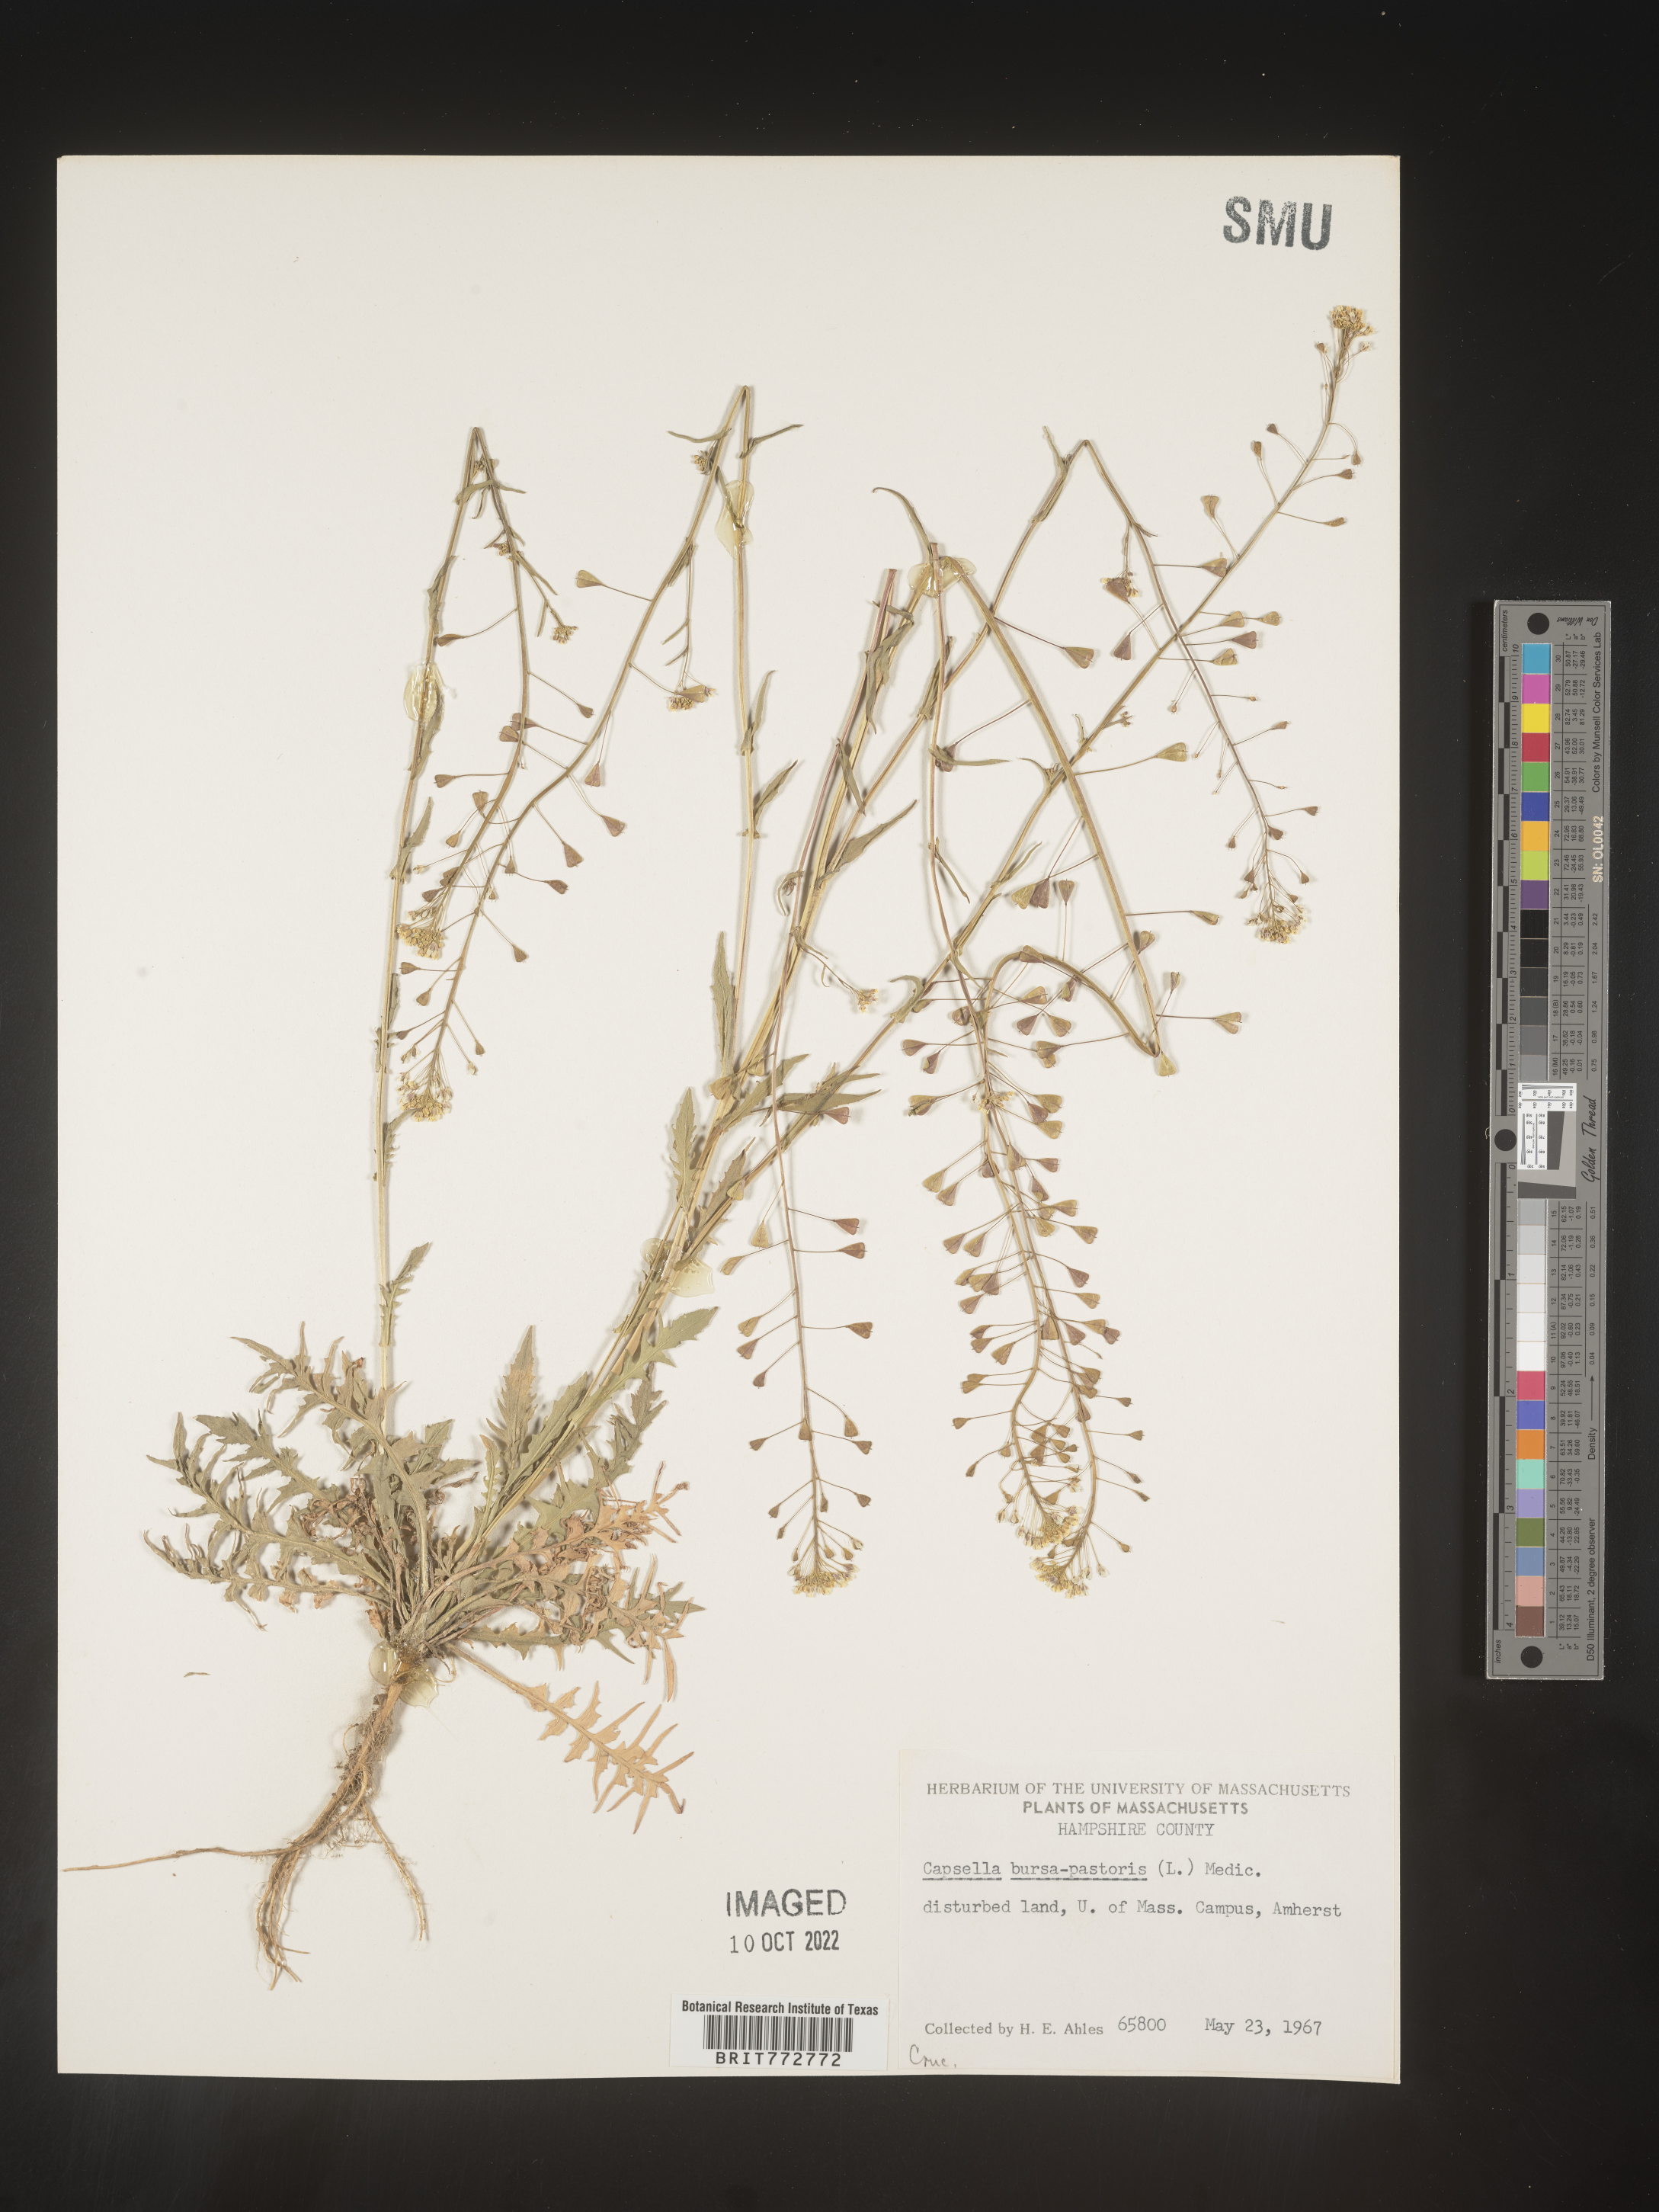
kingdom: Plantae
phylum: Tracheophyta
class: Magnoliopsida
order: Brassicales
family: Brassicaceae
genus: Capsella
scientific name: Capsella bursa-pastoris
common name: Shepherd's purse
